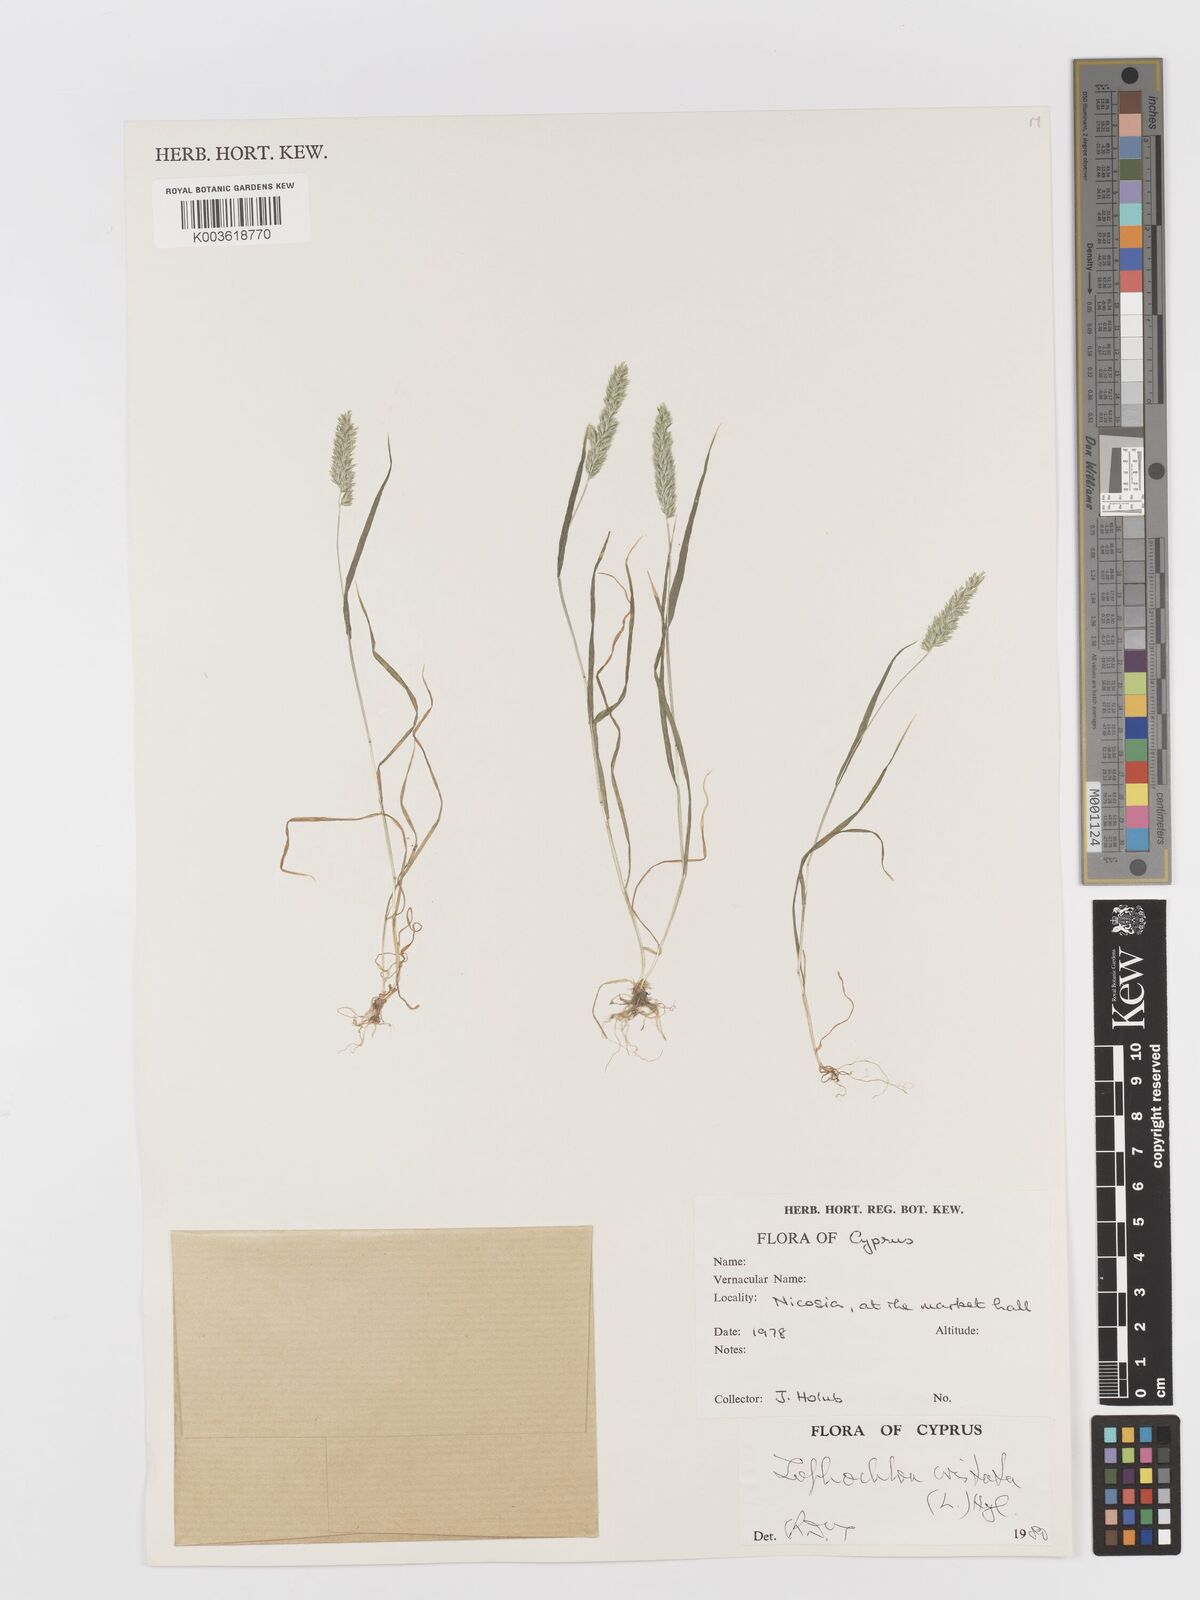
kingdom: Plantae
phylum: Tracheophyta
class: Liliopsida
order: Poales
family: Poaceae
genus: Rostraria
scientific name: Rostraria cristata
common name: Mediterranean hair-grass
